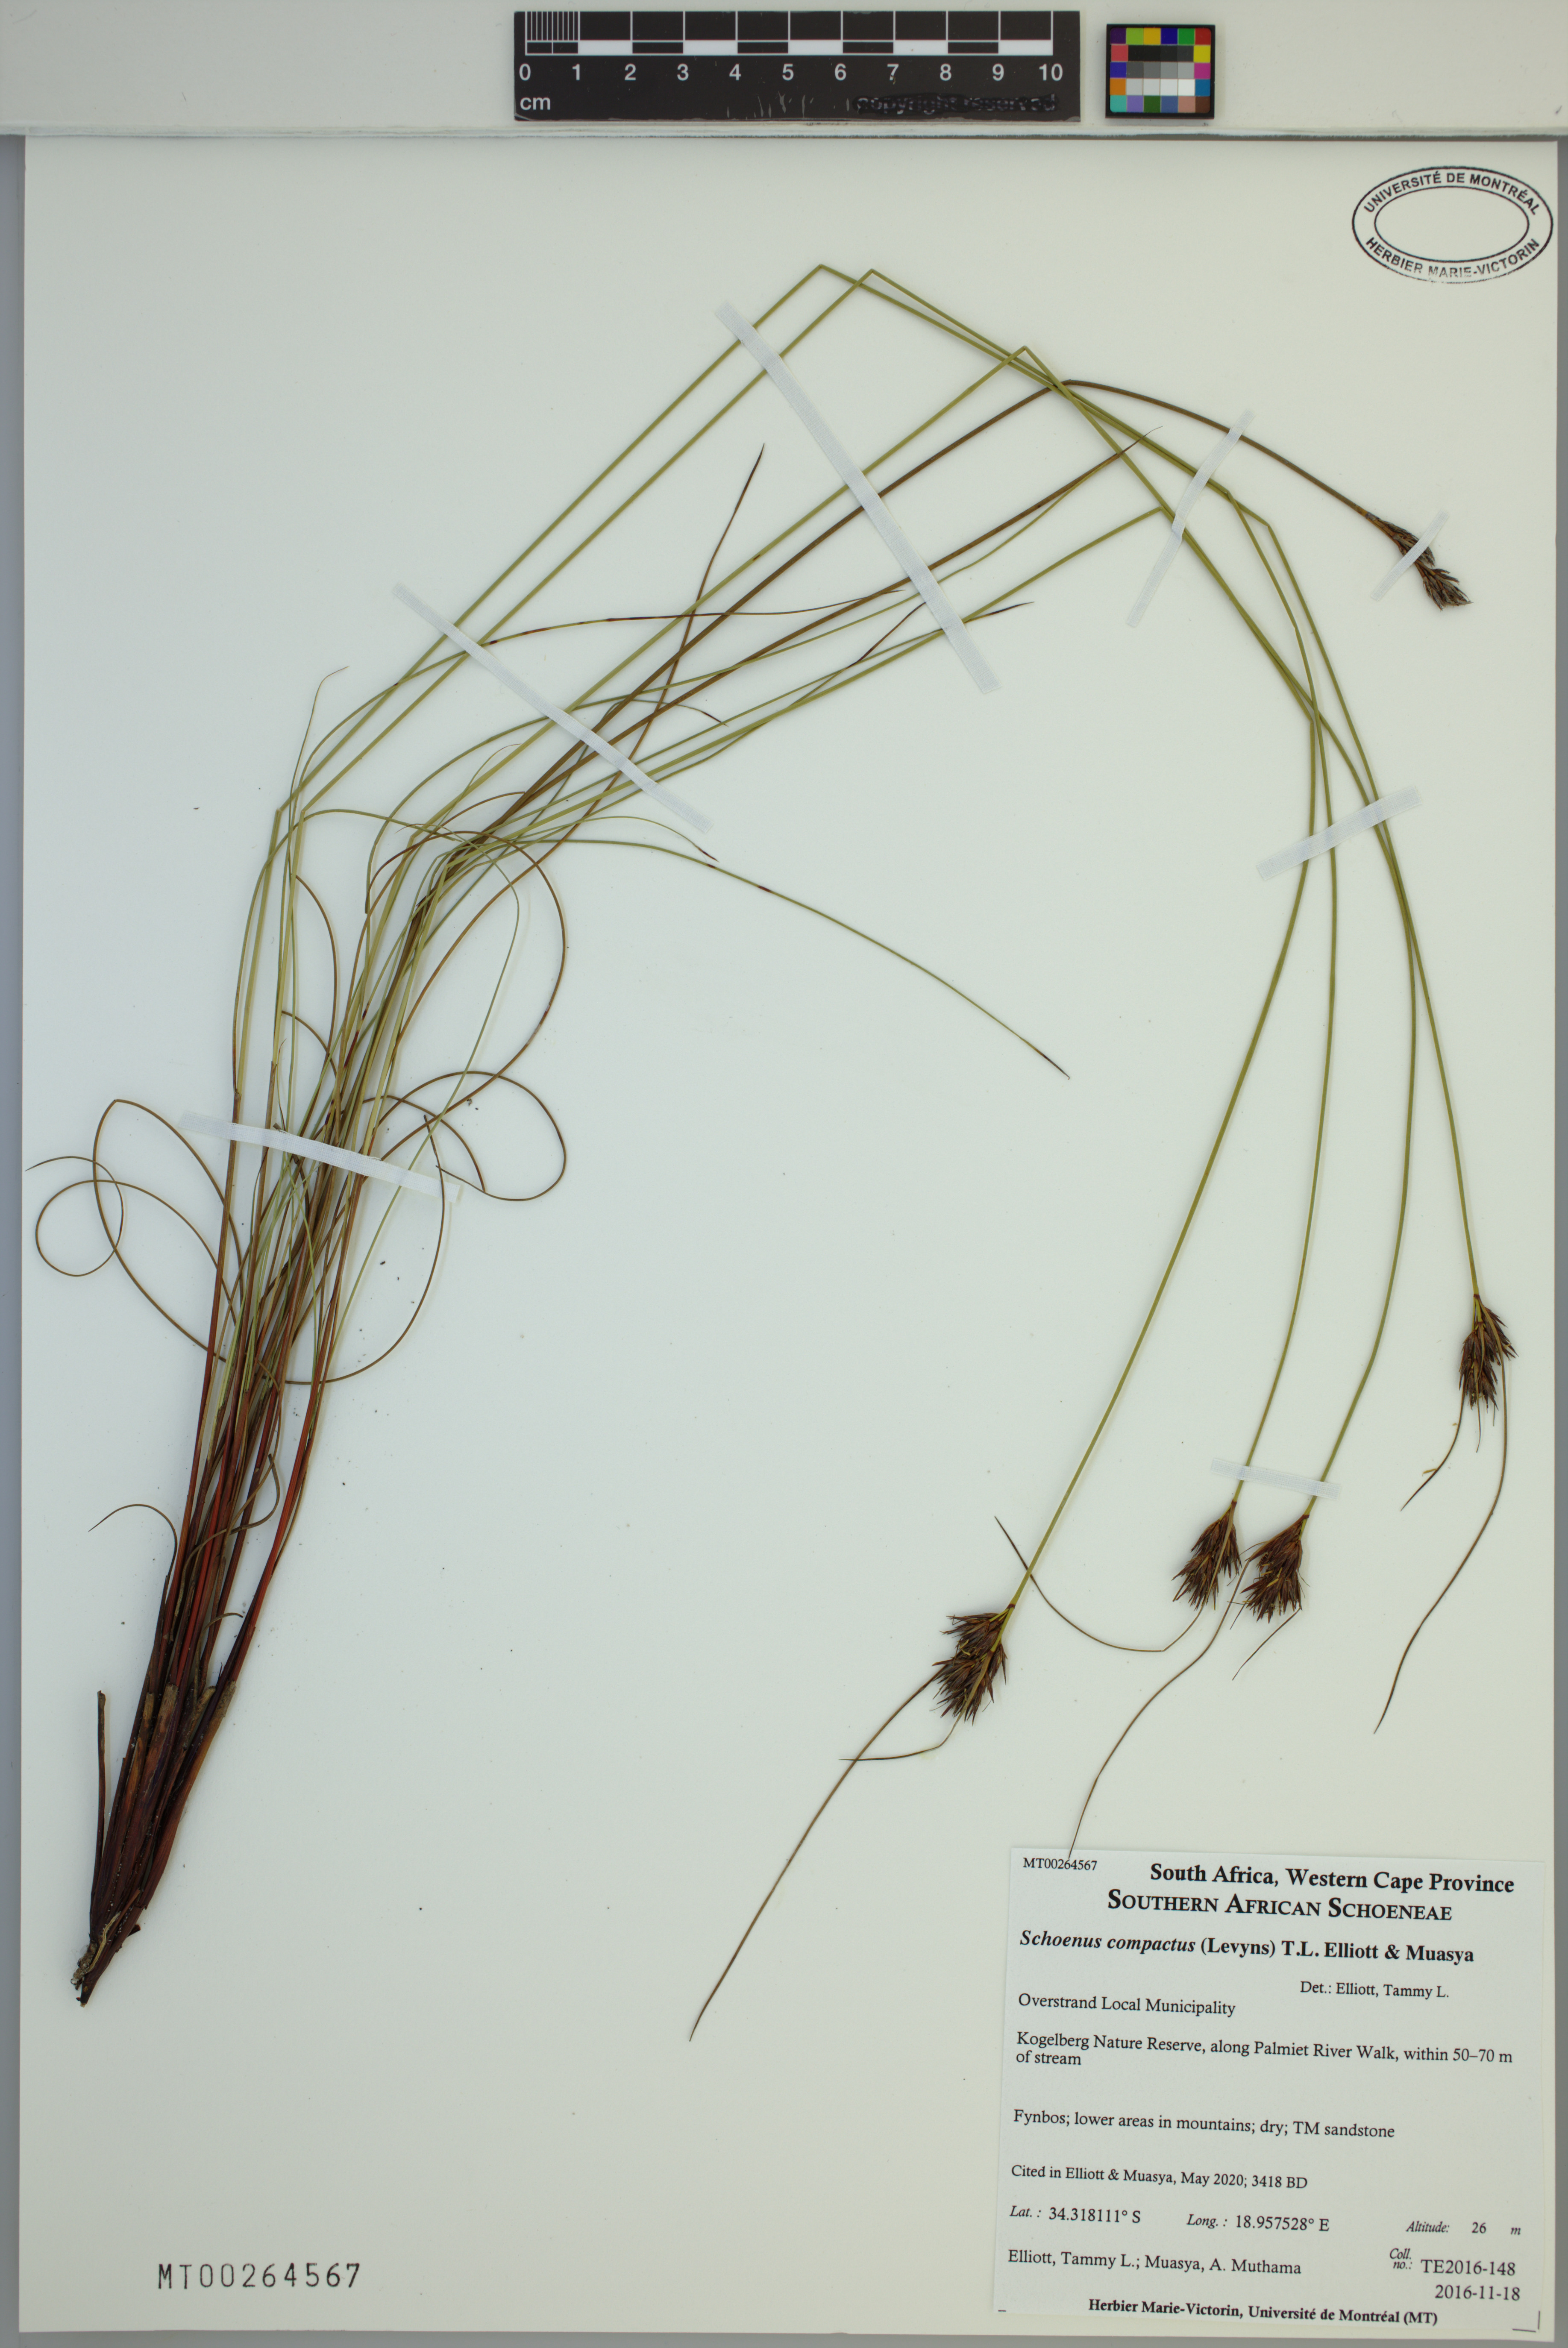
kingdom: Plantae
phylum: Tracheophyta
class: Liliopsida
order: Poales
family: Cyperaceae
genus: Schoenus
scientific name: Schoenus compactus
